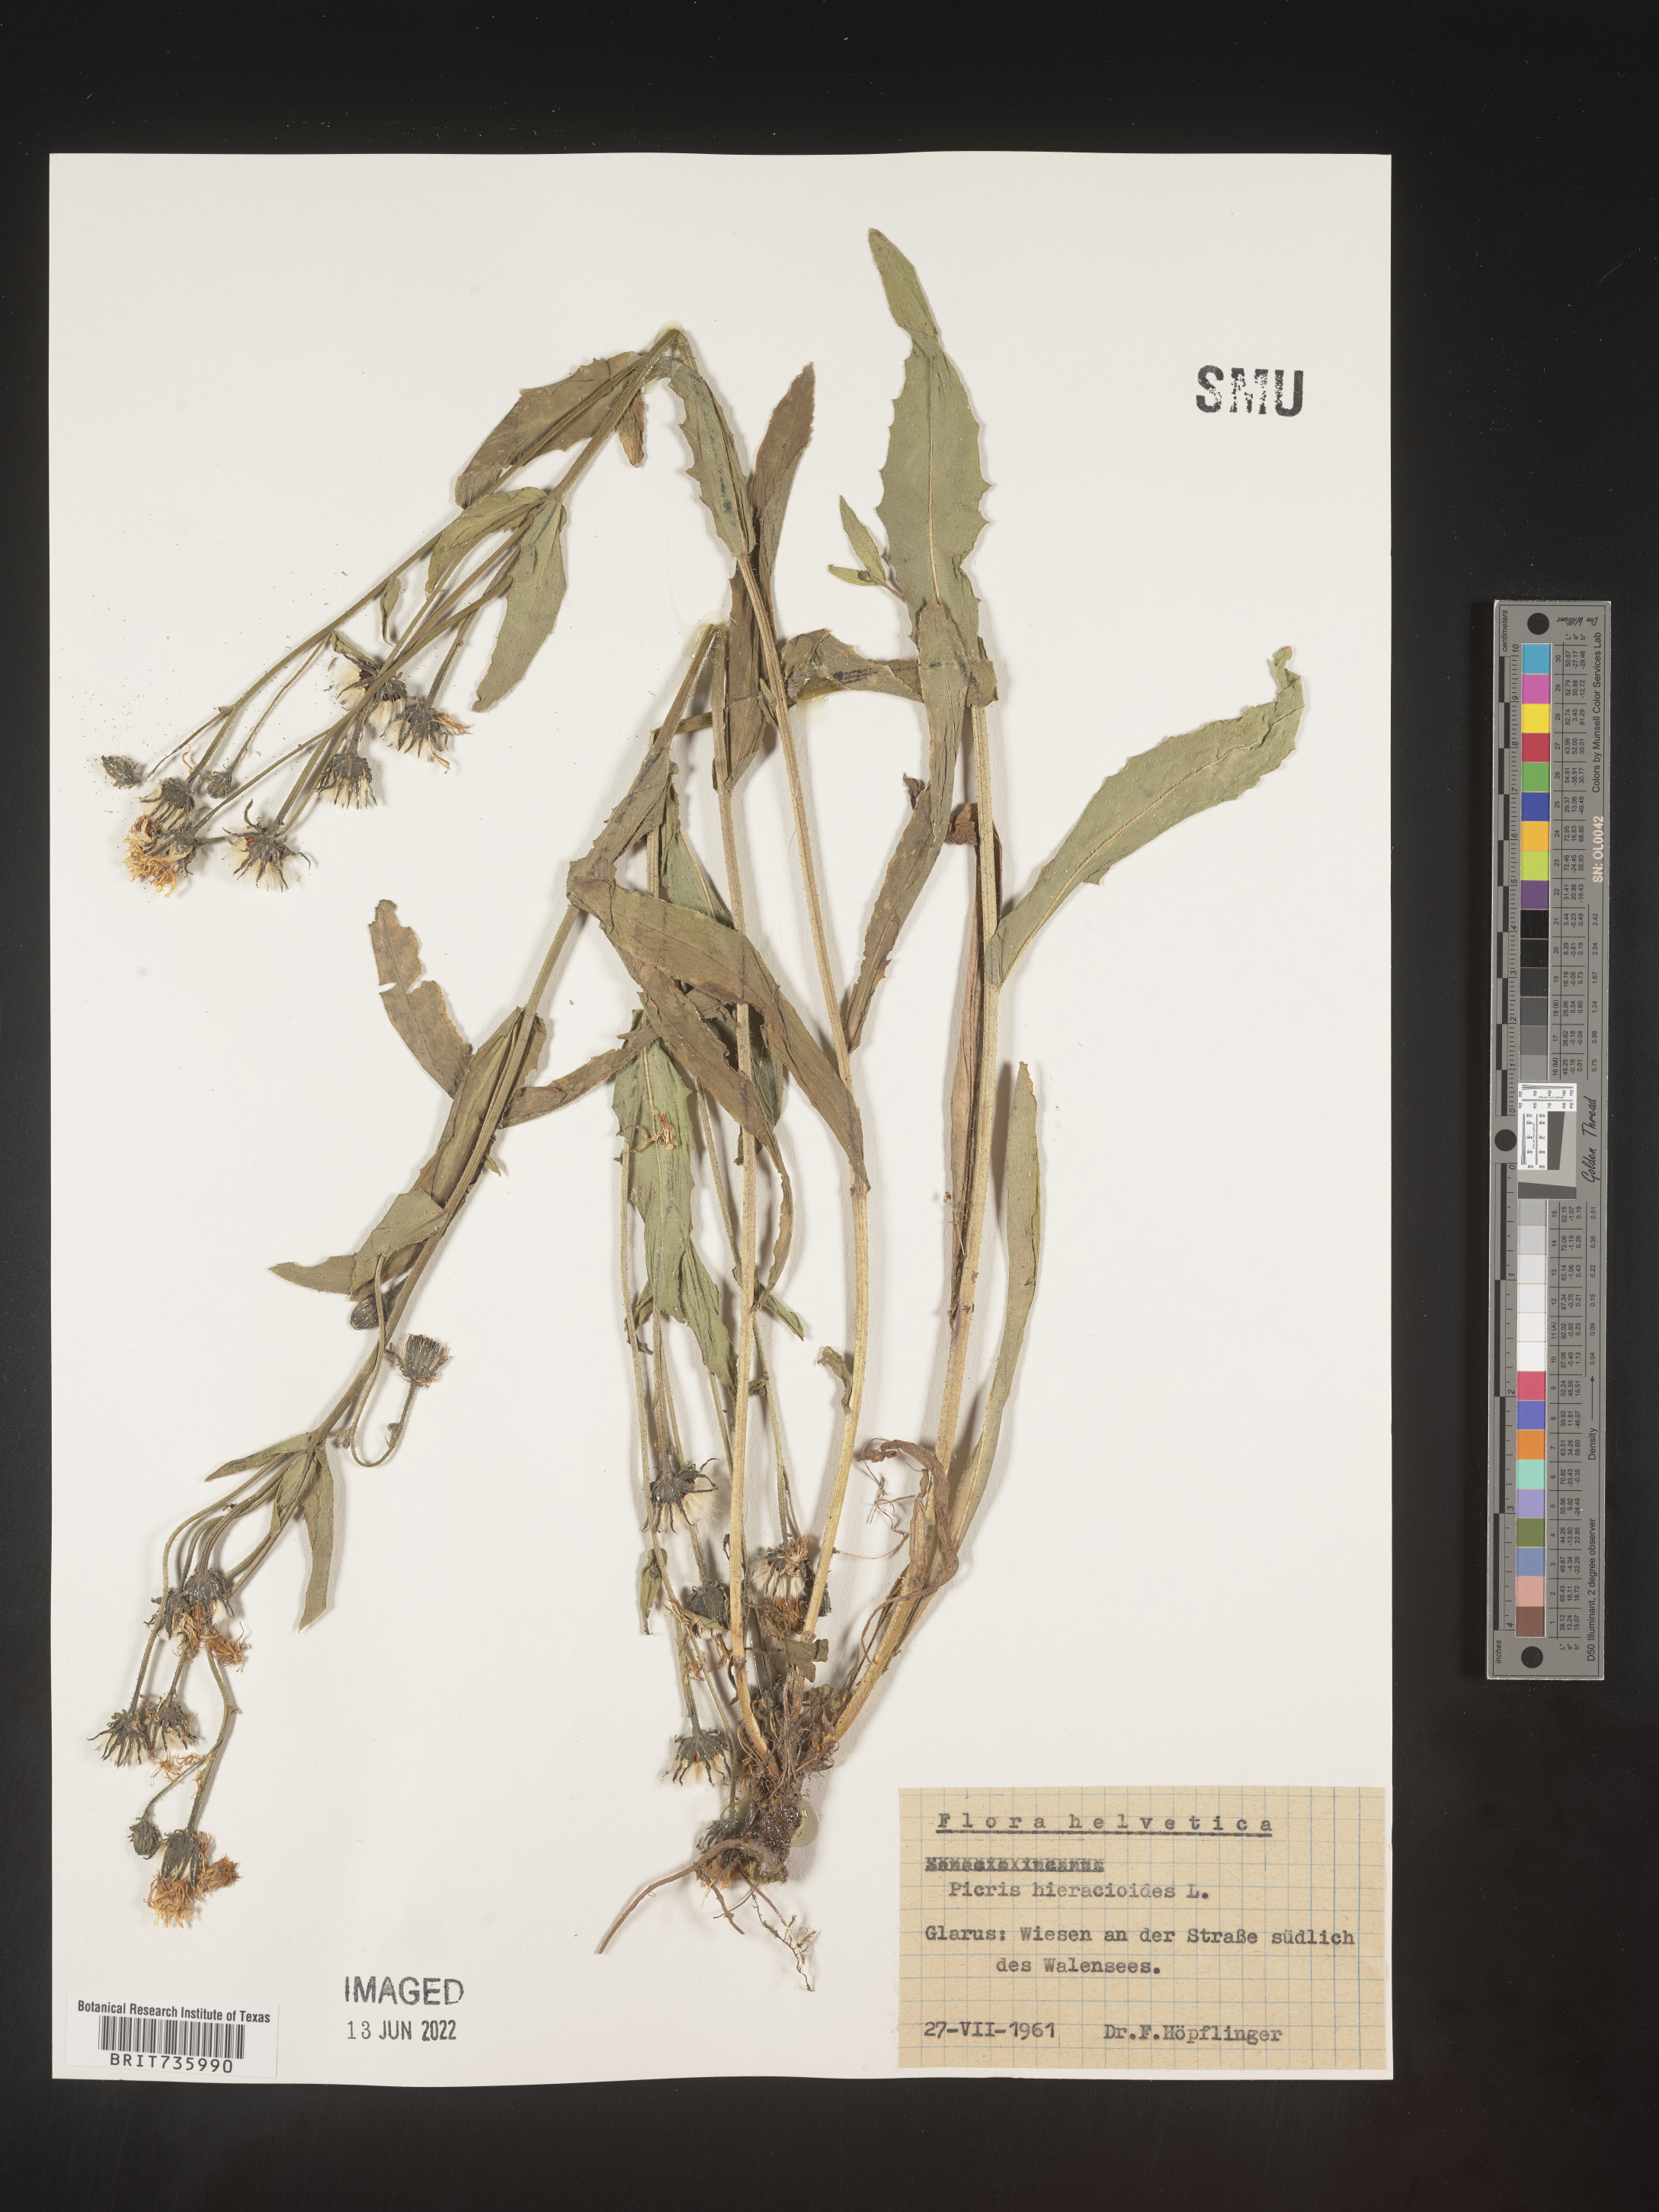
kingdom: Plantae
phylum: Tracheophyta
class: Magnoliopsida
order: Asterales
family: Asteraceae
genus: Picris
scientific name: Picris
